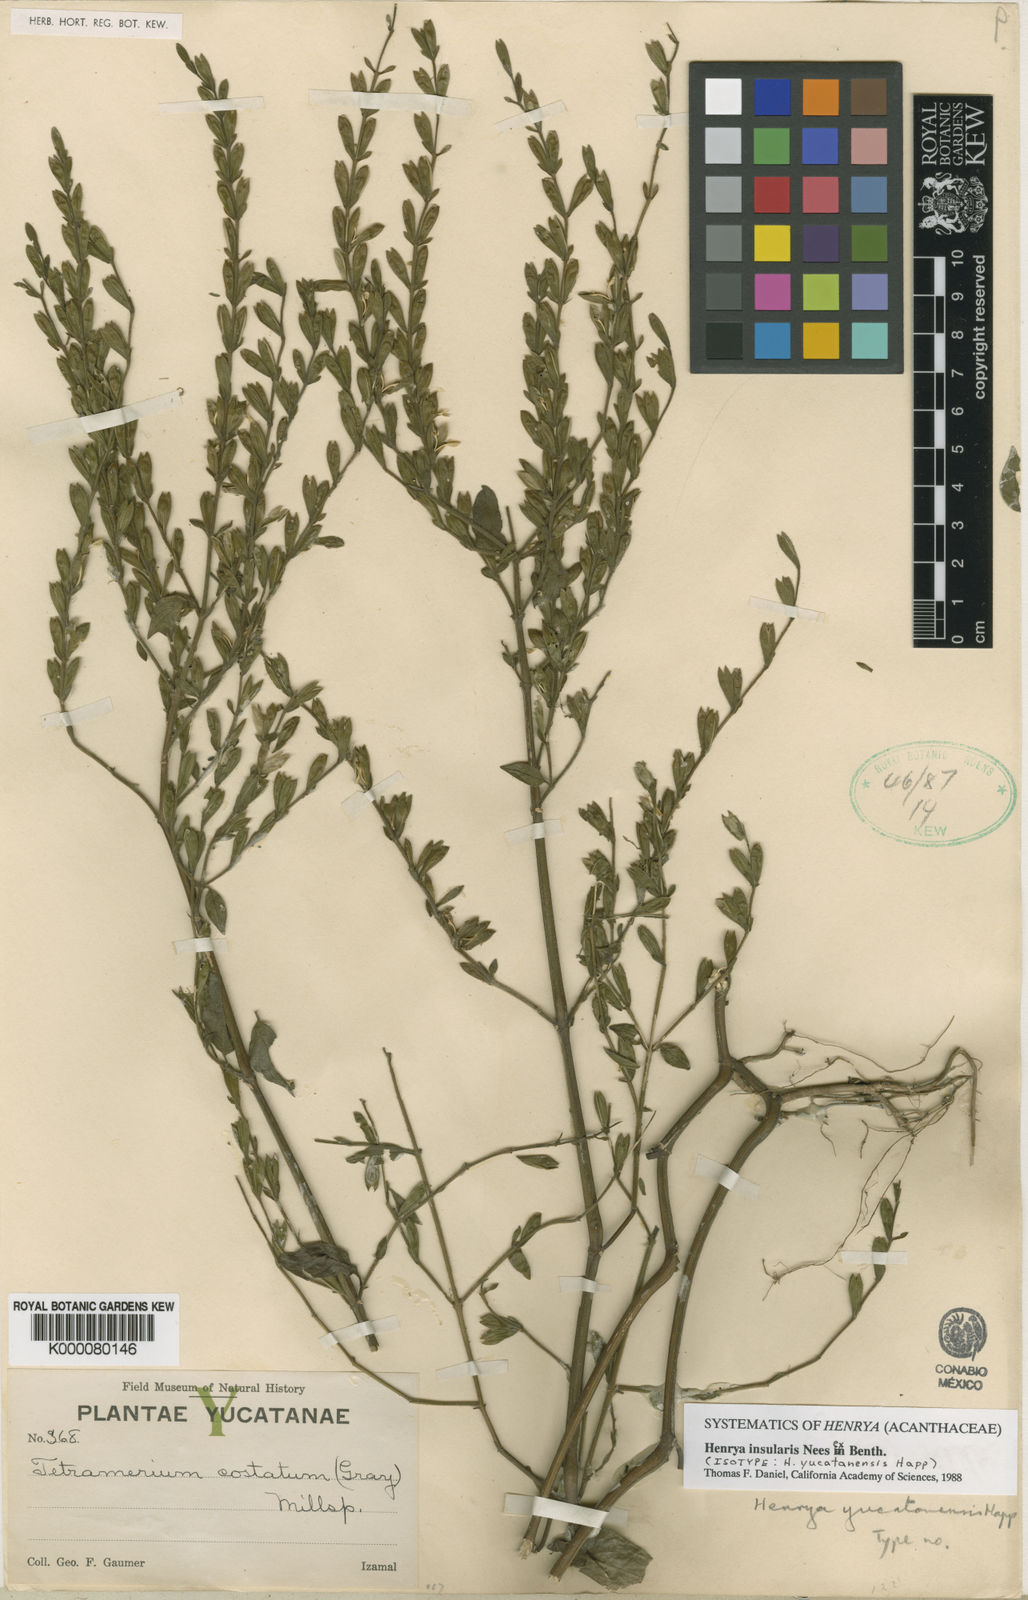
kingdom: Plantae
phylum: Tracheophyta
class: Magnoliopsida
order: Lamiales
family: Acanthaceae
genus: Henrya
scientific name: Henrya
